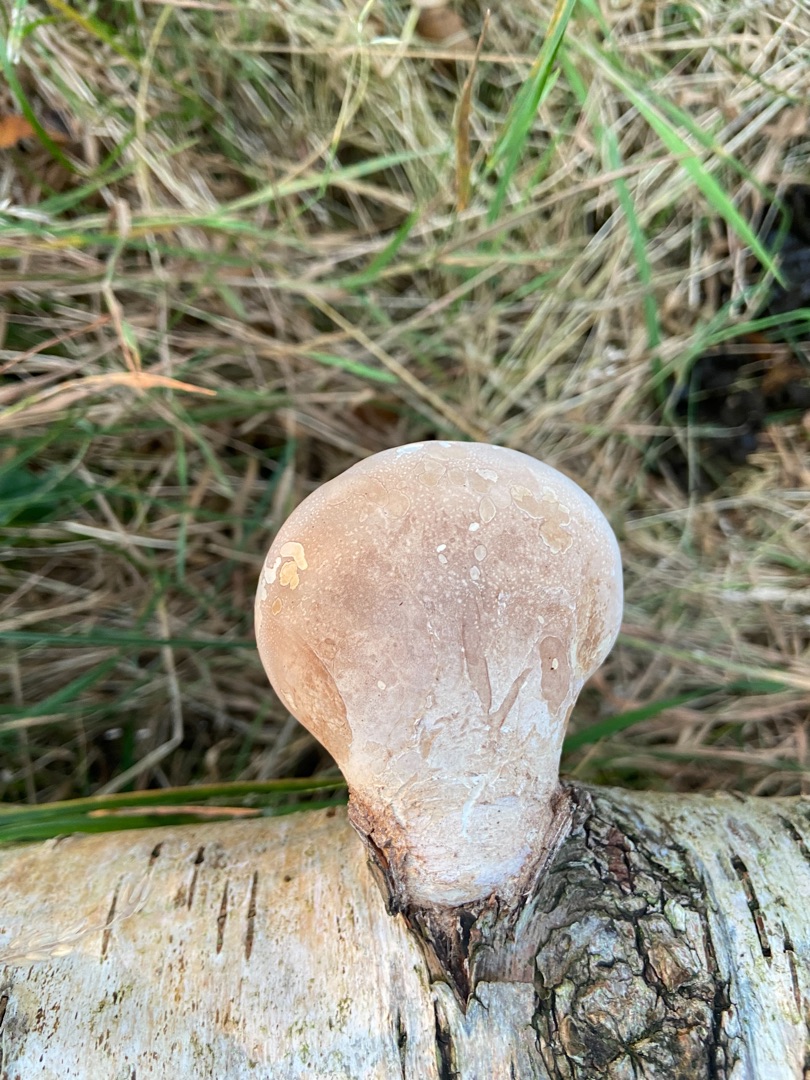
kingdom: Fungi
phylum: Basidiomycota
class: Agaricomycetes
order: Polyporales
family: Fomitopsidaceae
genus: Fomitopsis
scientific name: Fomitopsis betulina
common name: Birkeporesvamp
